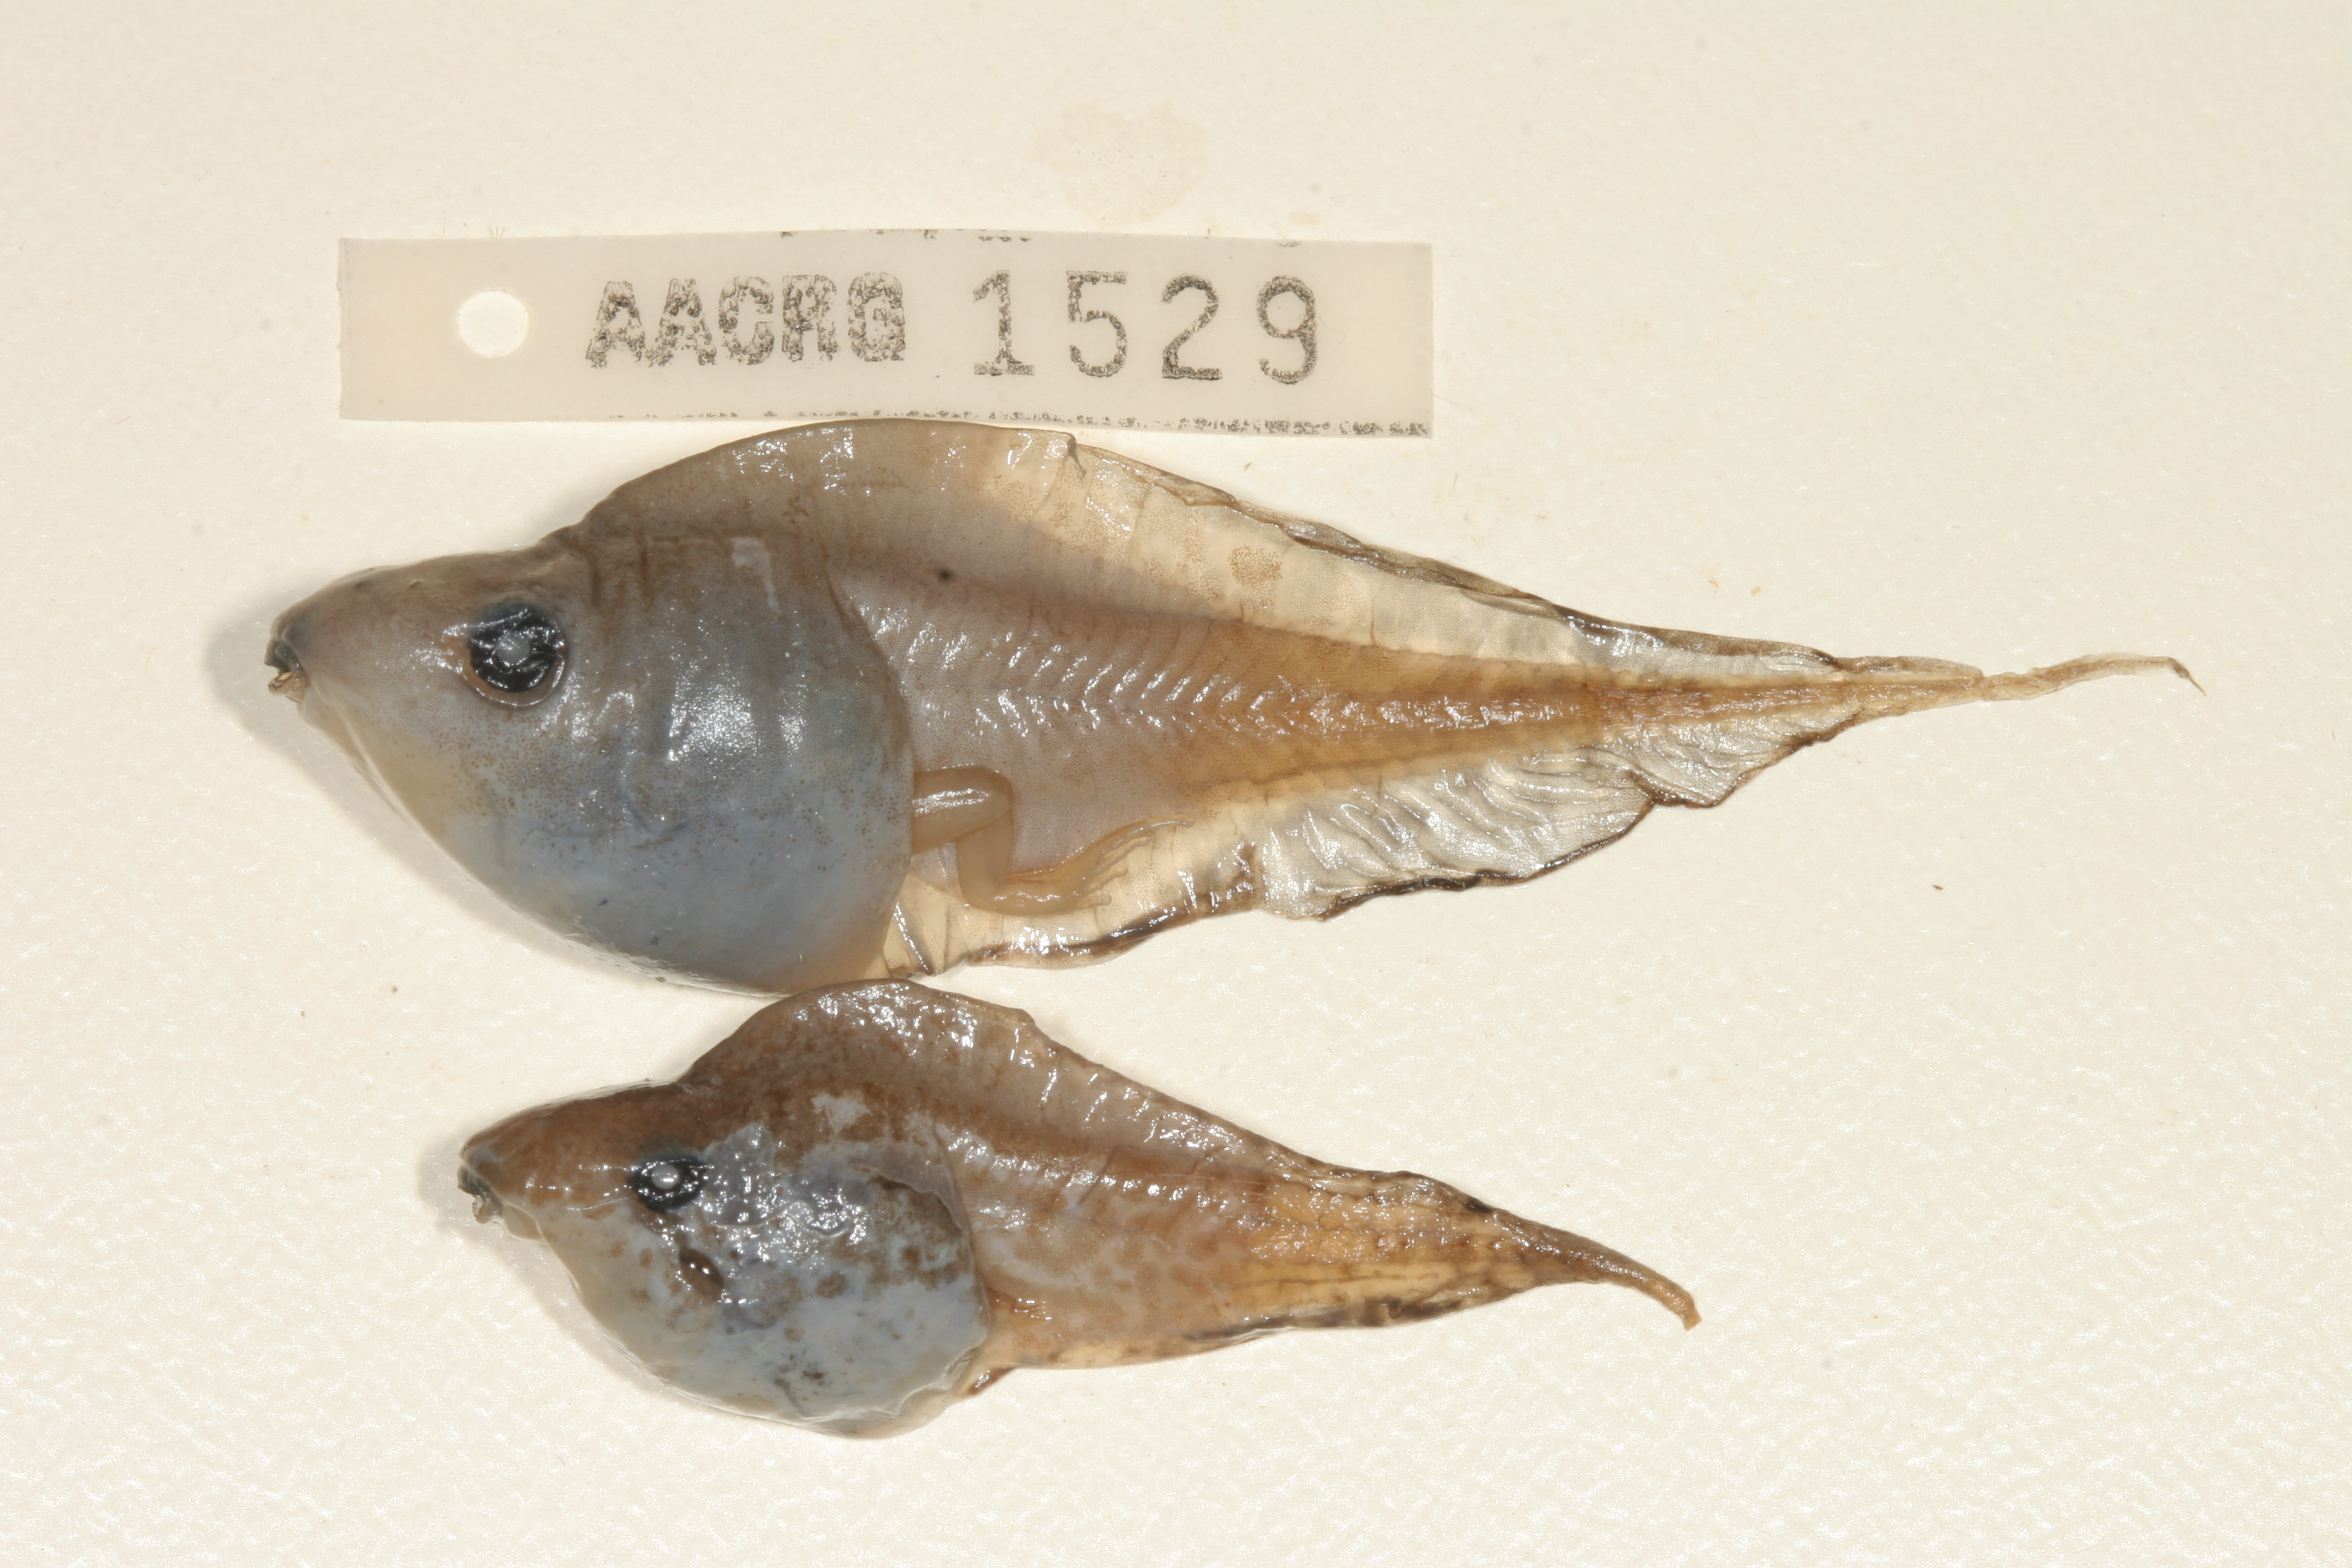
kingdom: Animalia
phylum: Chordata
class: Amphibia
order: Anura
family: Hyperoliidae
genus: Kassina
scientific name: Kassina senegalensis
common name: Senegal land frog
